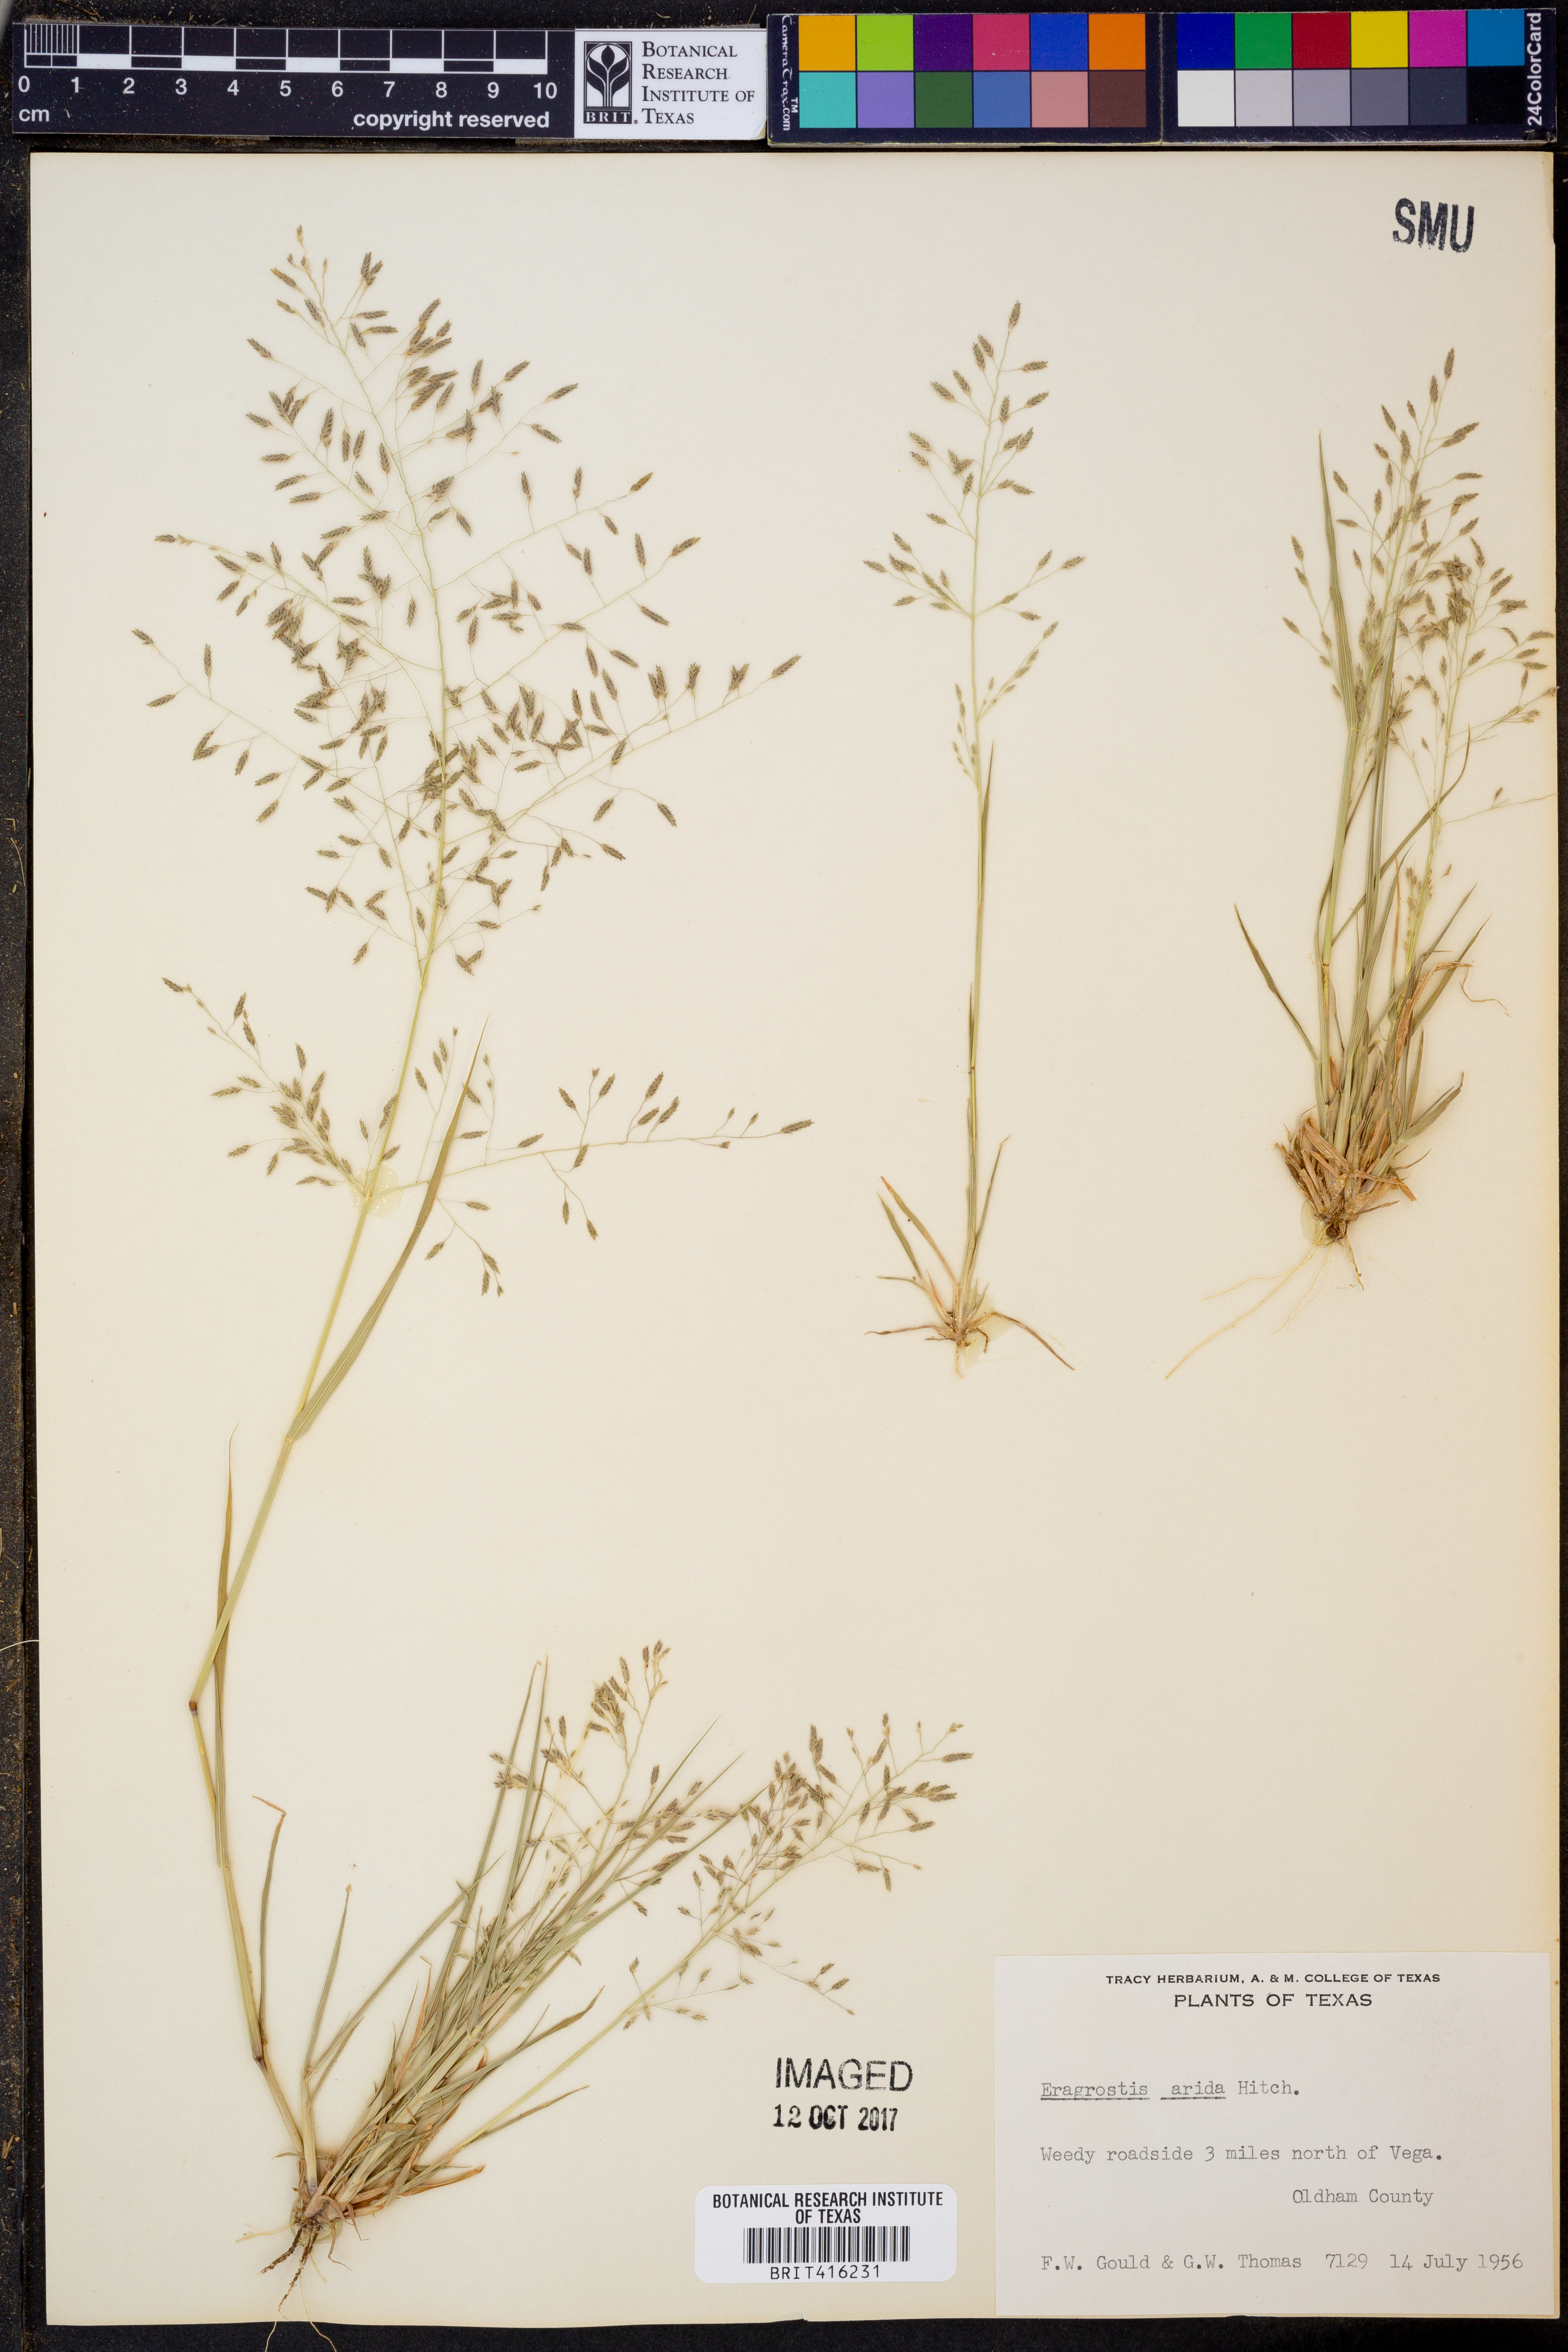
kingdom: Plantae
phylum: Tracheophyta
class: Liliopsida
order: Poales
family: Poaceae
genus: Eragrostis
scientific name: Eragrostis tephrosanthos
